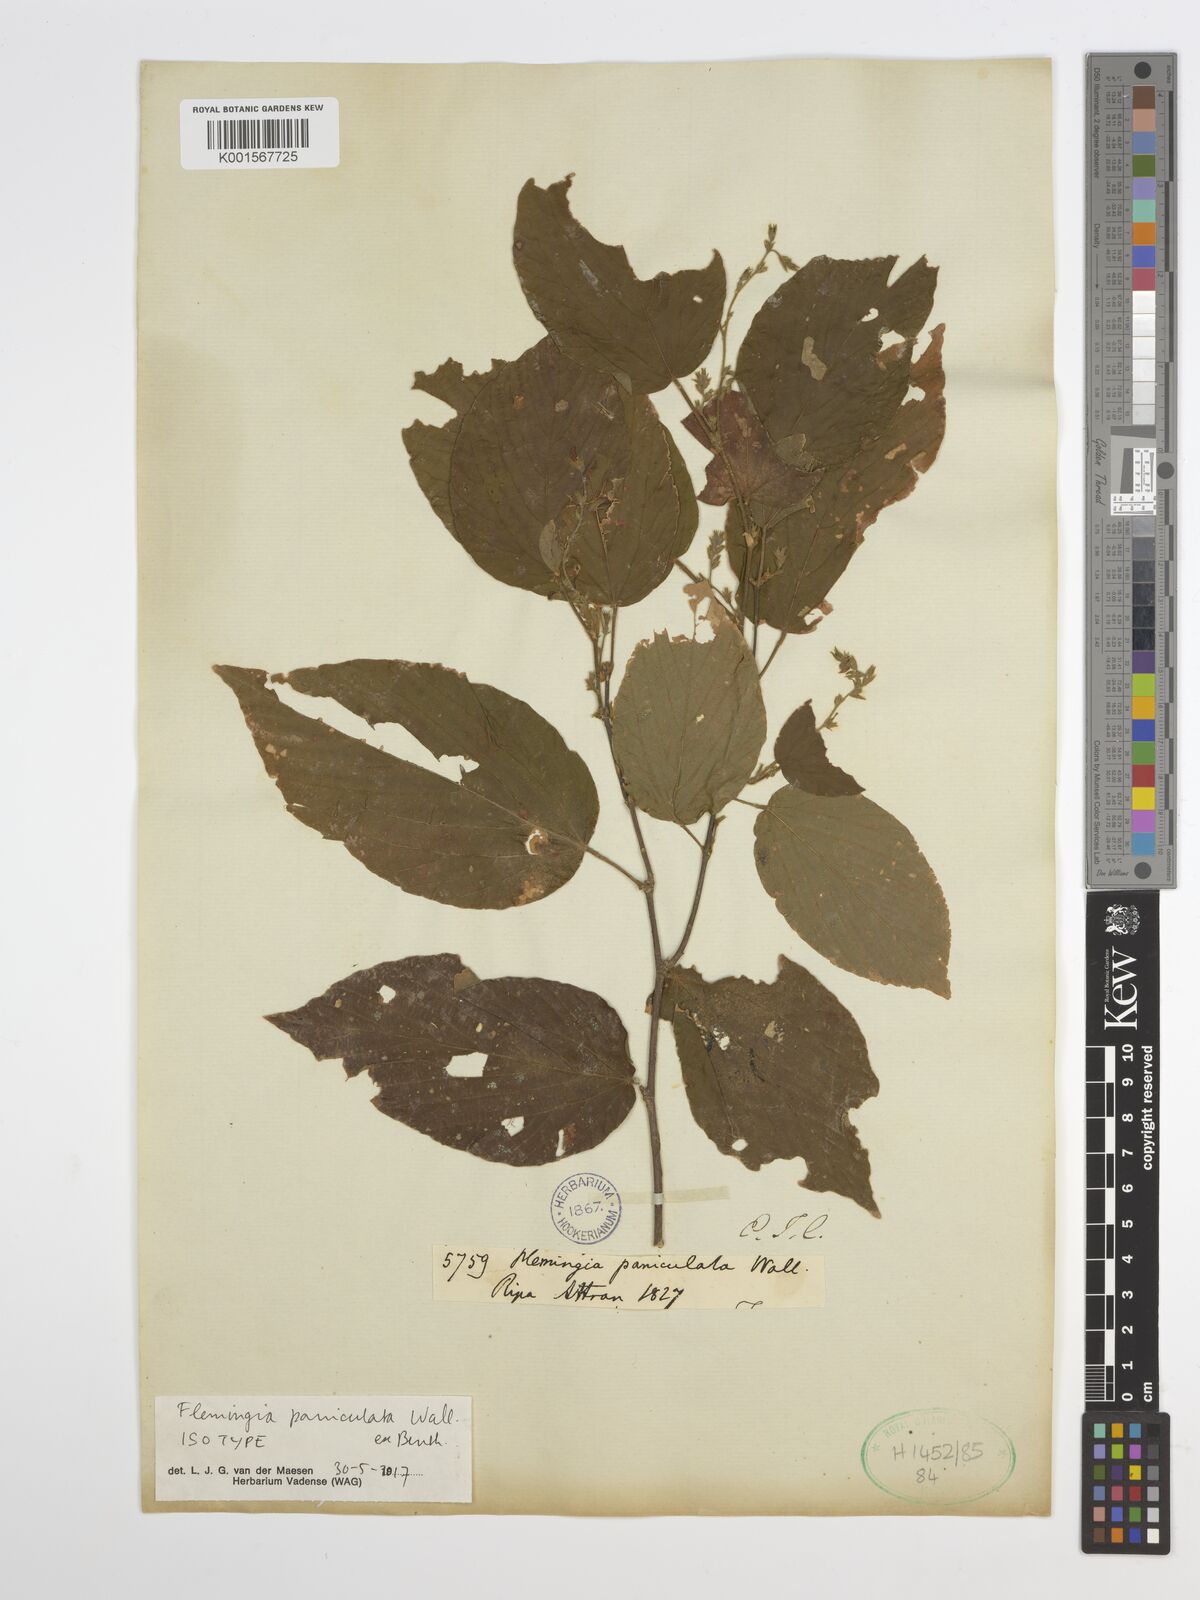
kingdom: Plantae
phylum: Tracheophyta
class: Magnoliopsida
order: Fabales
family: Fabaceae
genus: Flemingia
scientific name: Flemingia paniculata
